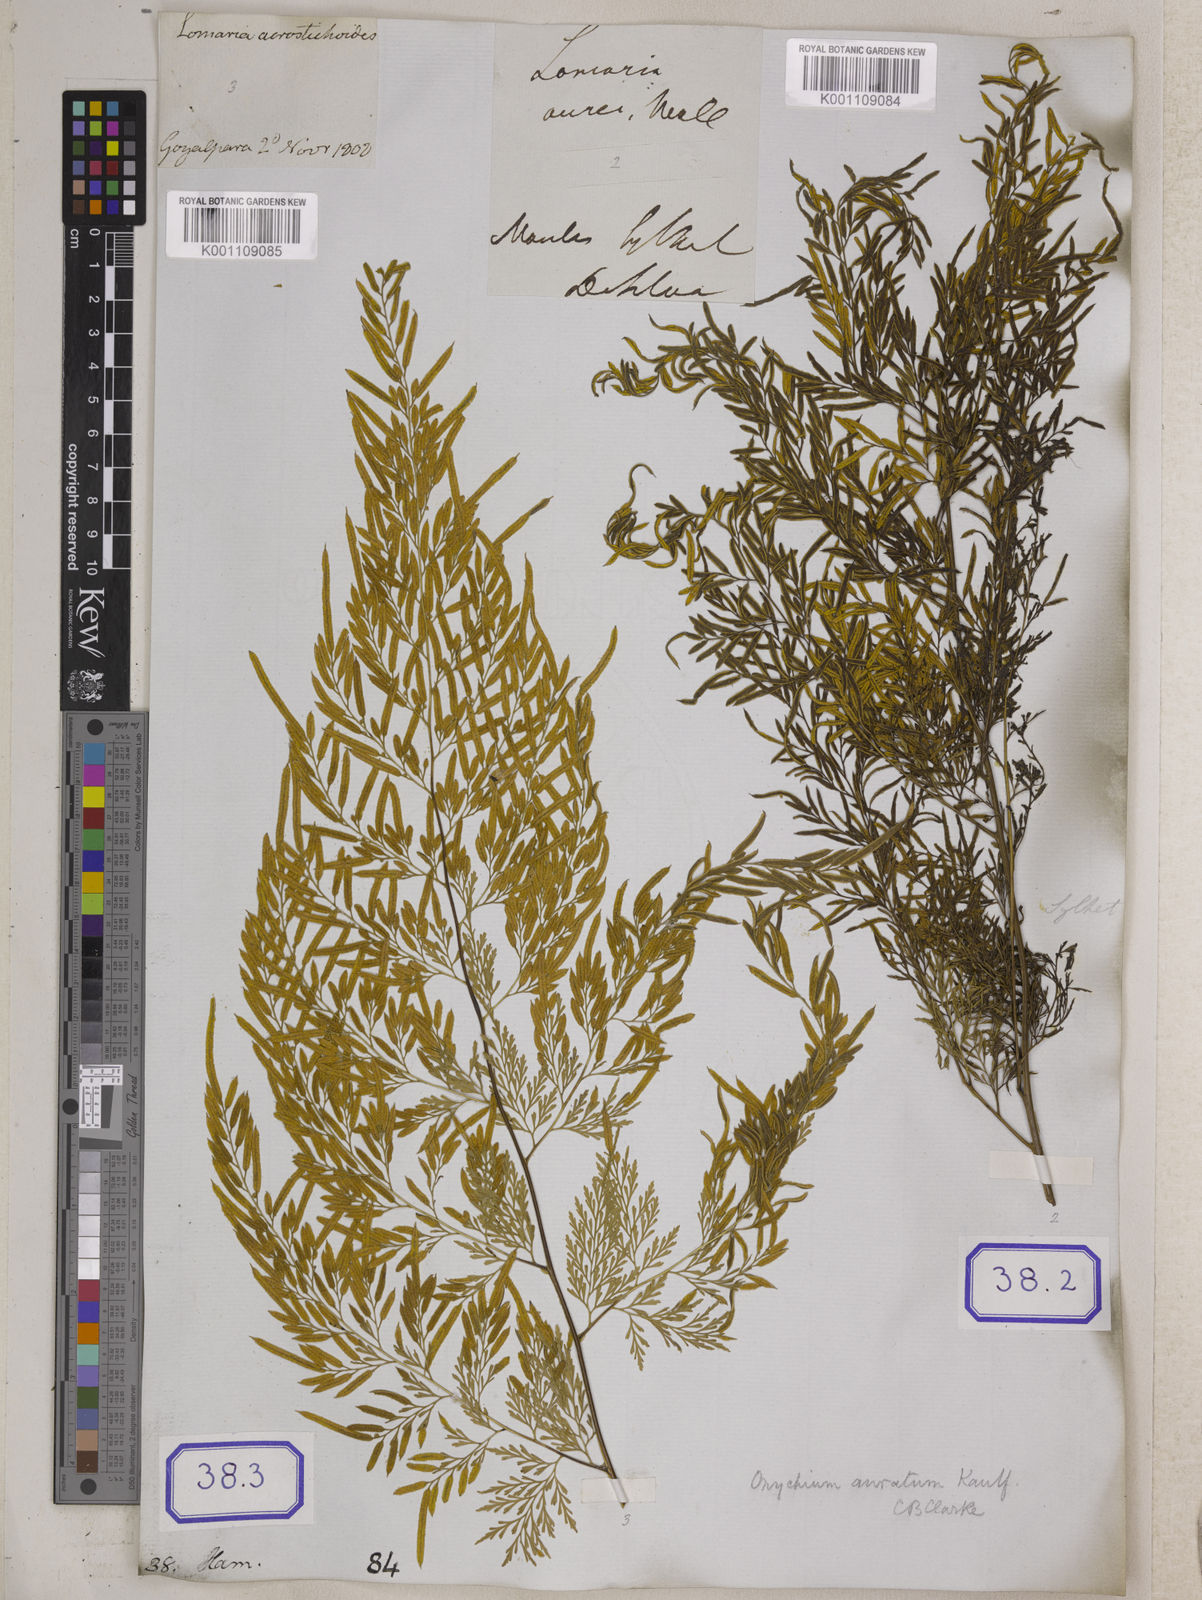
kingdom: Plantae
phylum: Tracheophyta
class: Polypodiopsida
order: Polypodiales
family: Pteridaceae
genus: Onychium
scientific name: Onychium siliculosum
